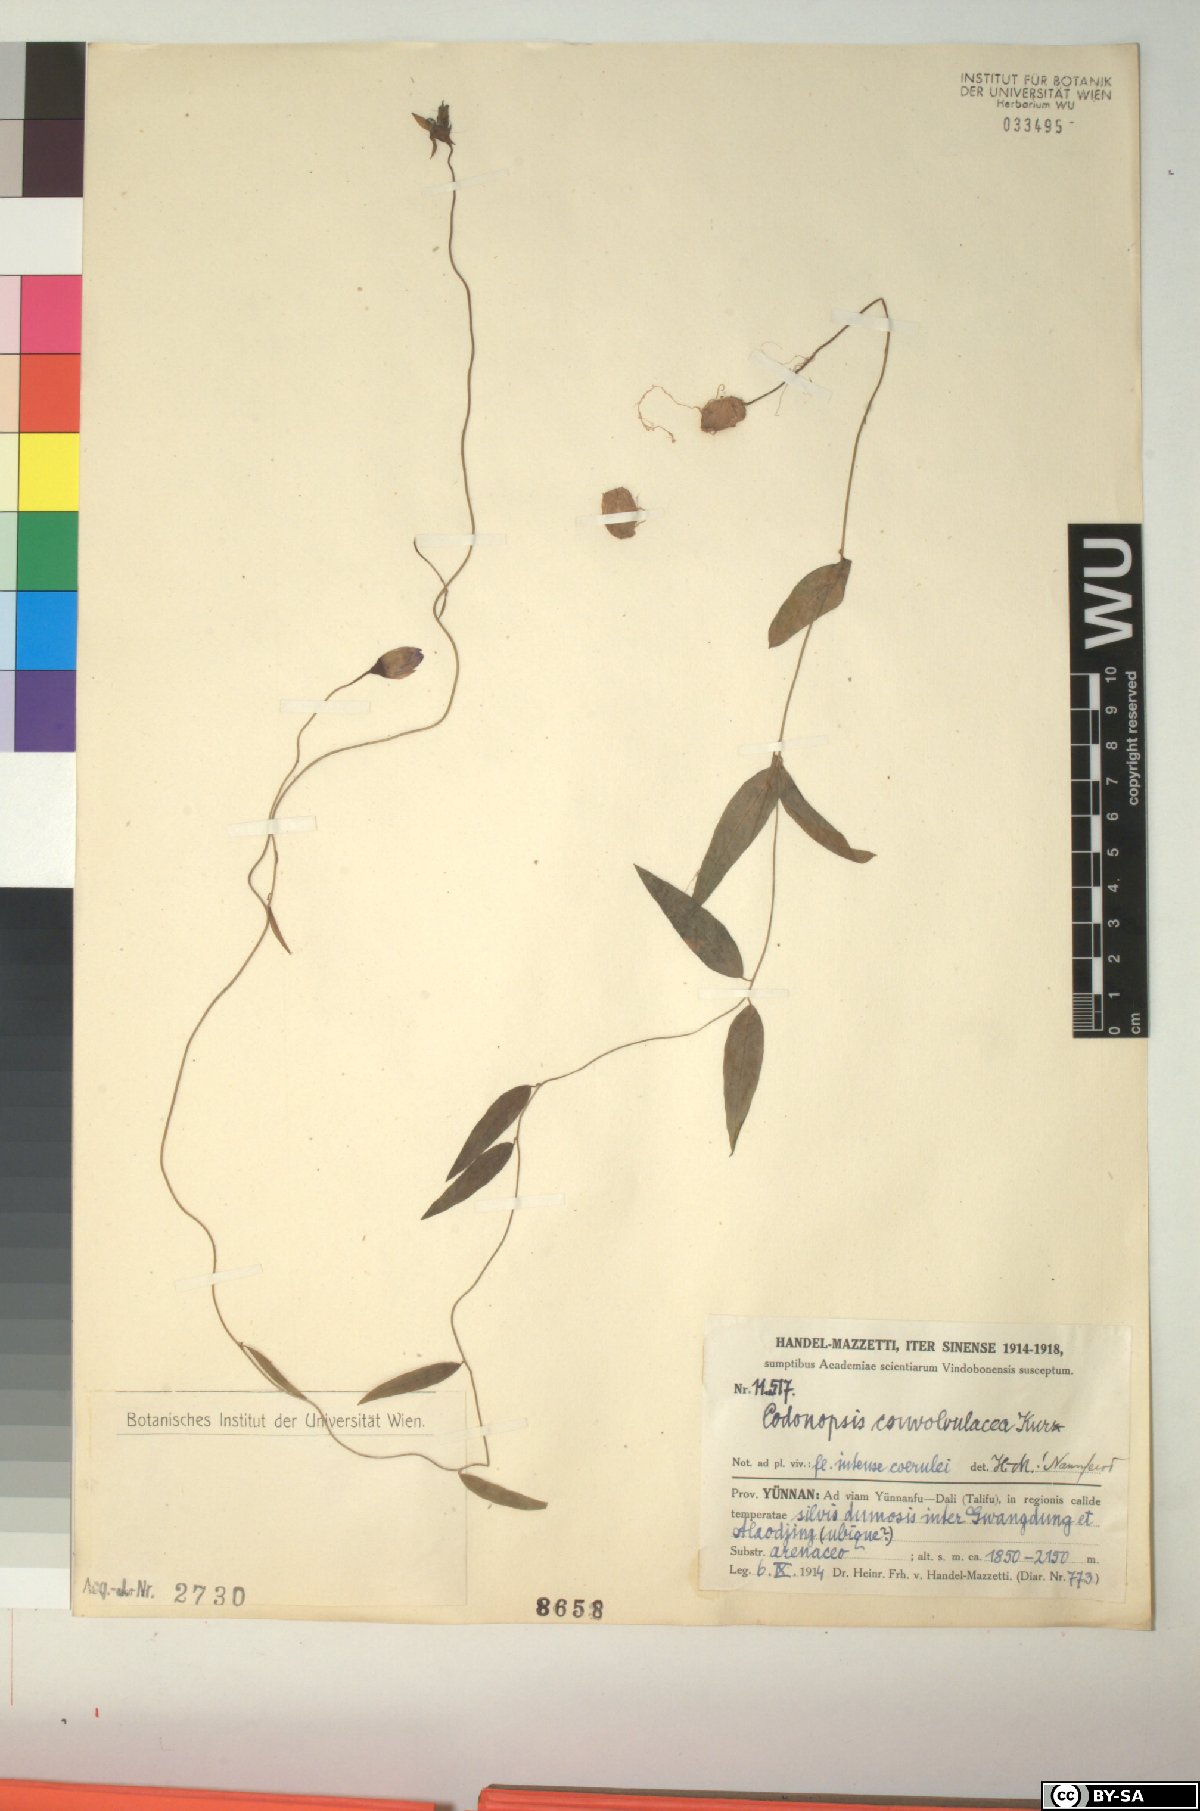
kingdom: Plantae
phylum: Tracheophyta
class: Magnoliopsida
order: Asterales
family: Campanulaceae
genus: Pseudocodon
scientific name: Pseudocodon convolvulaceus
